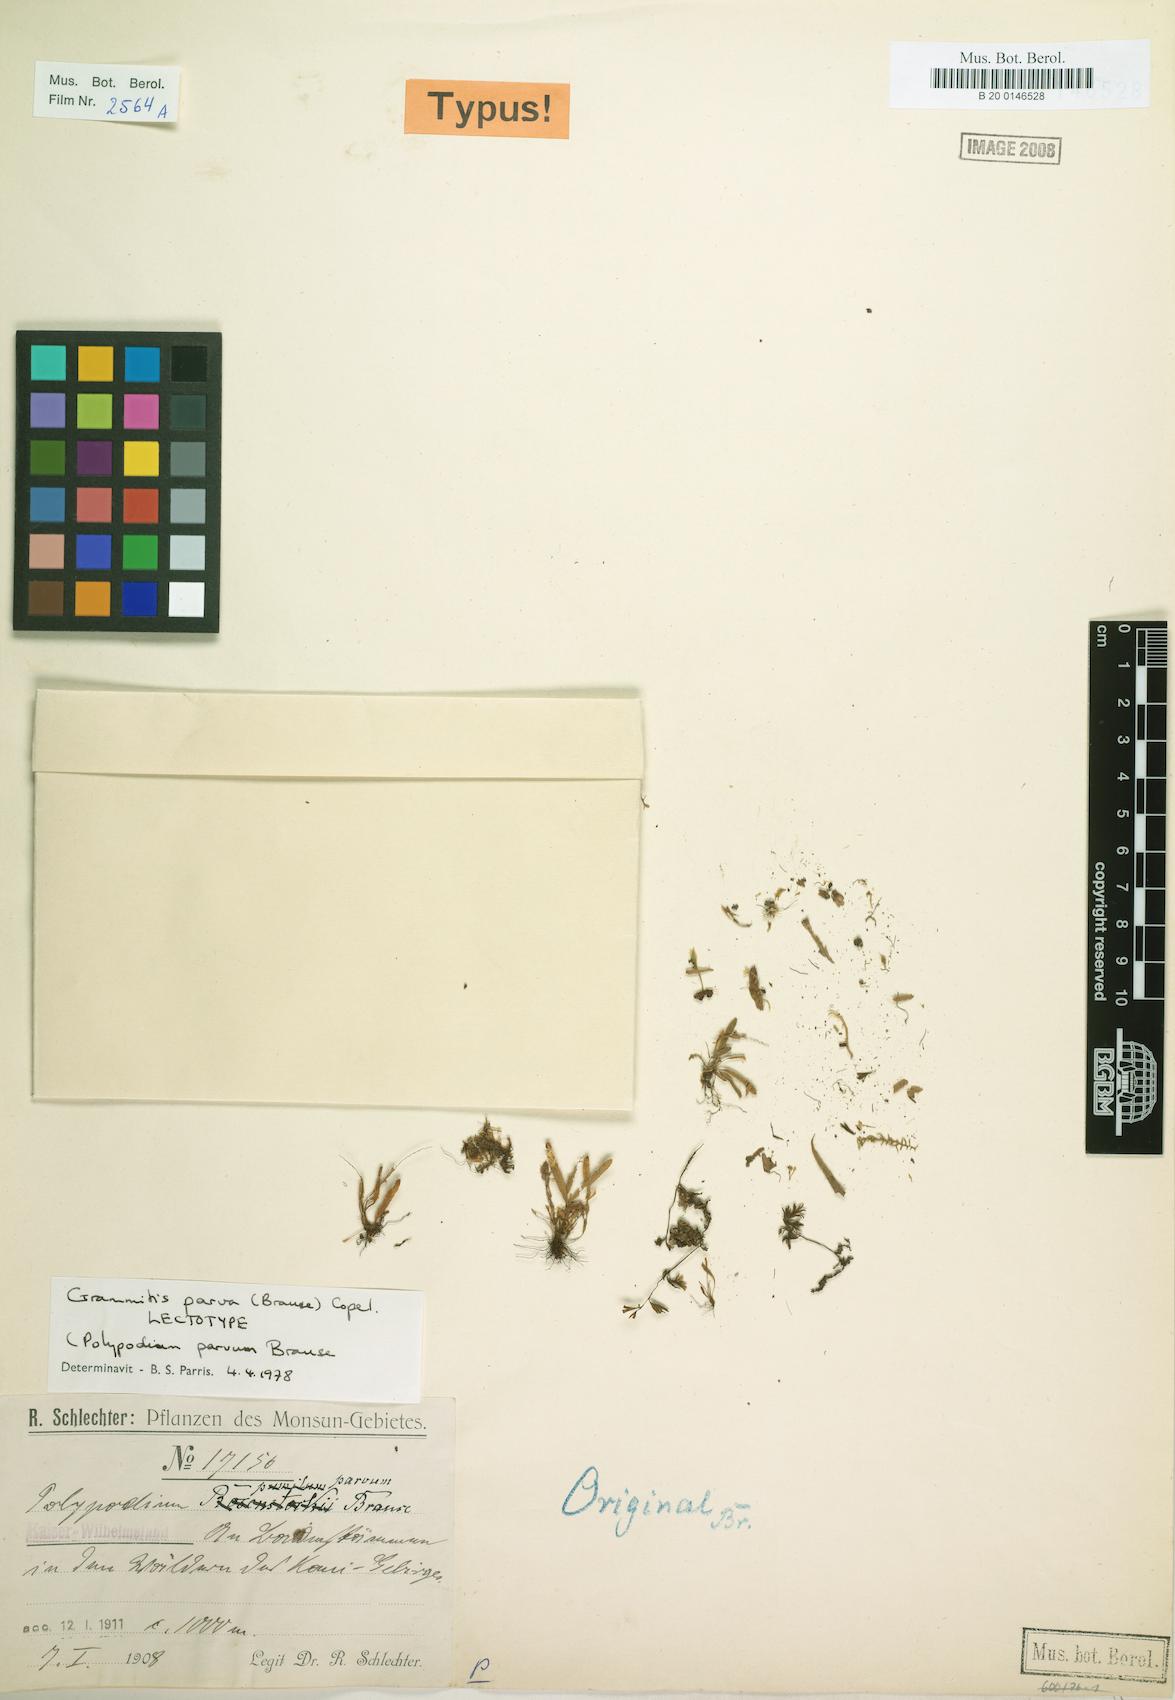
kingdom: Plantae
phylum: Tracheophyta
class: Polypodiopsida
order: Polypodiales
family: Polypodiaceae
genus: Oreogrammitis
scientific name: Oreogrammitis parva
